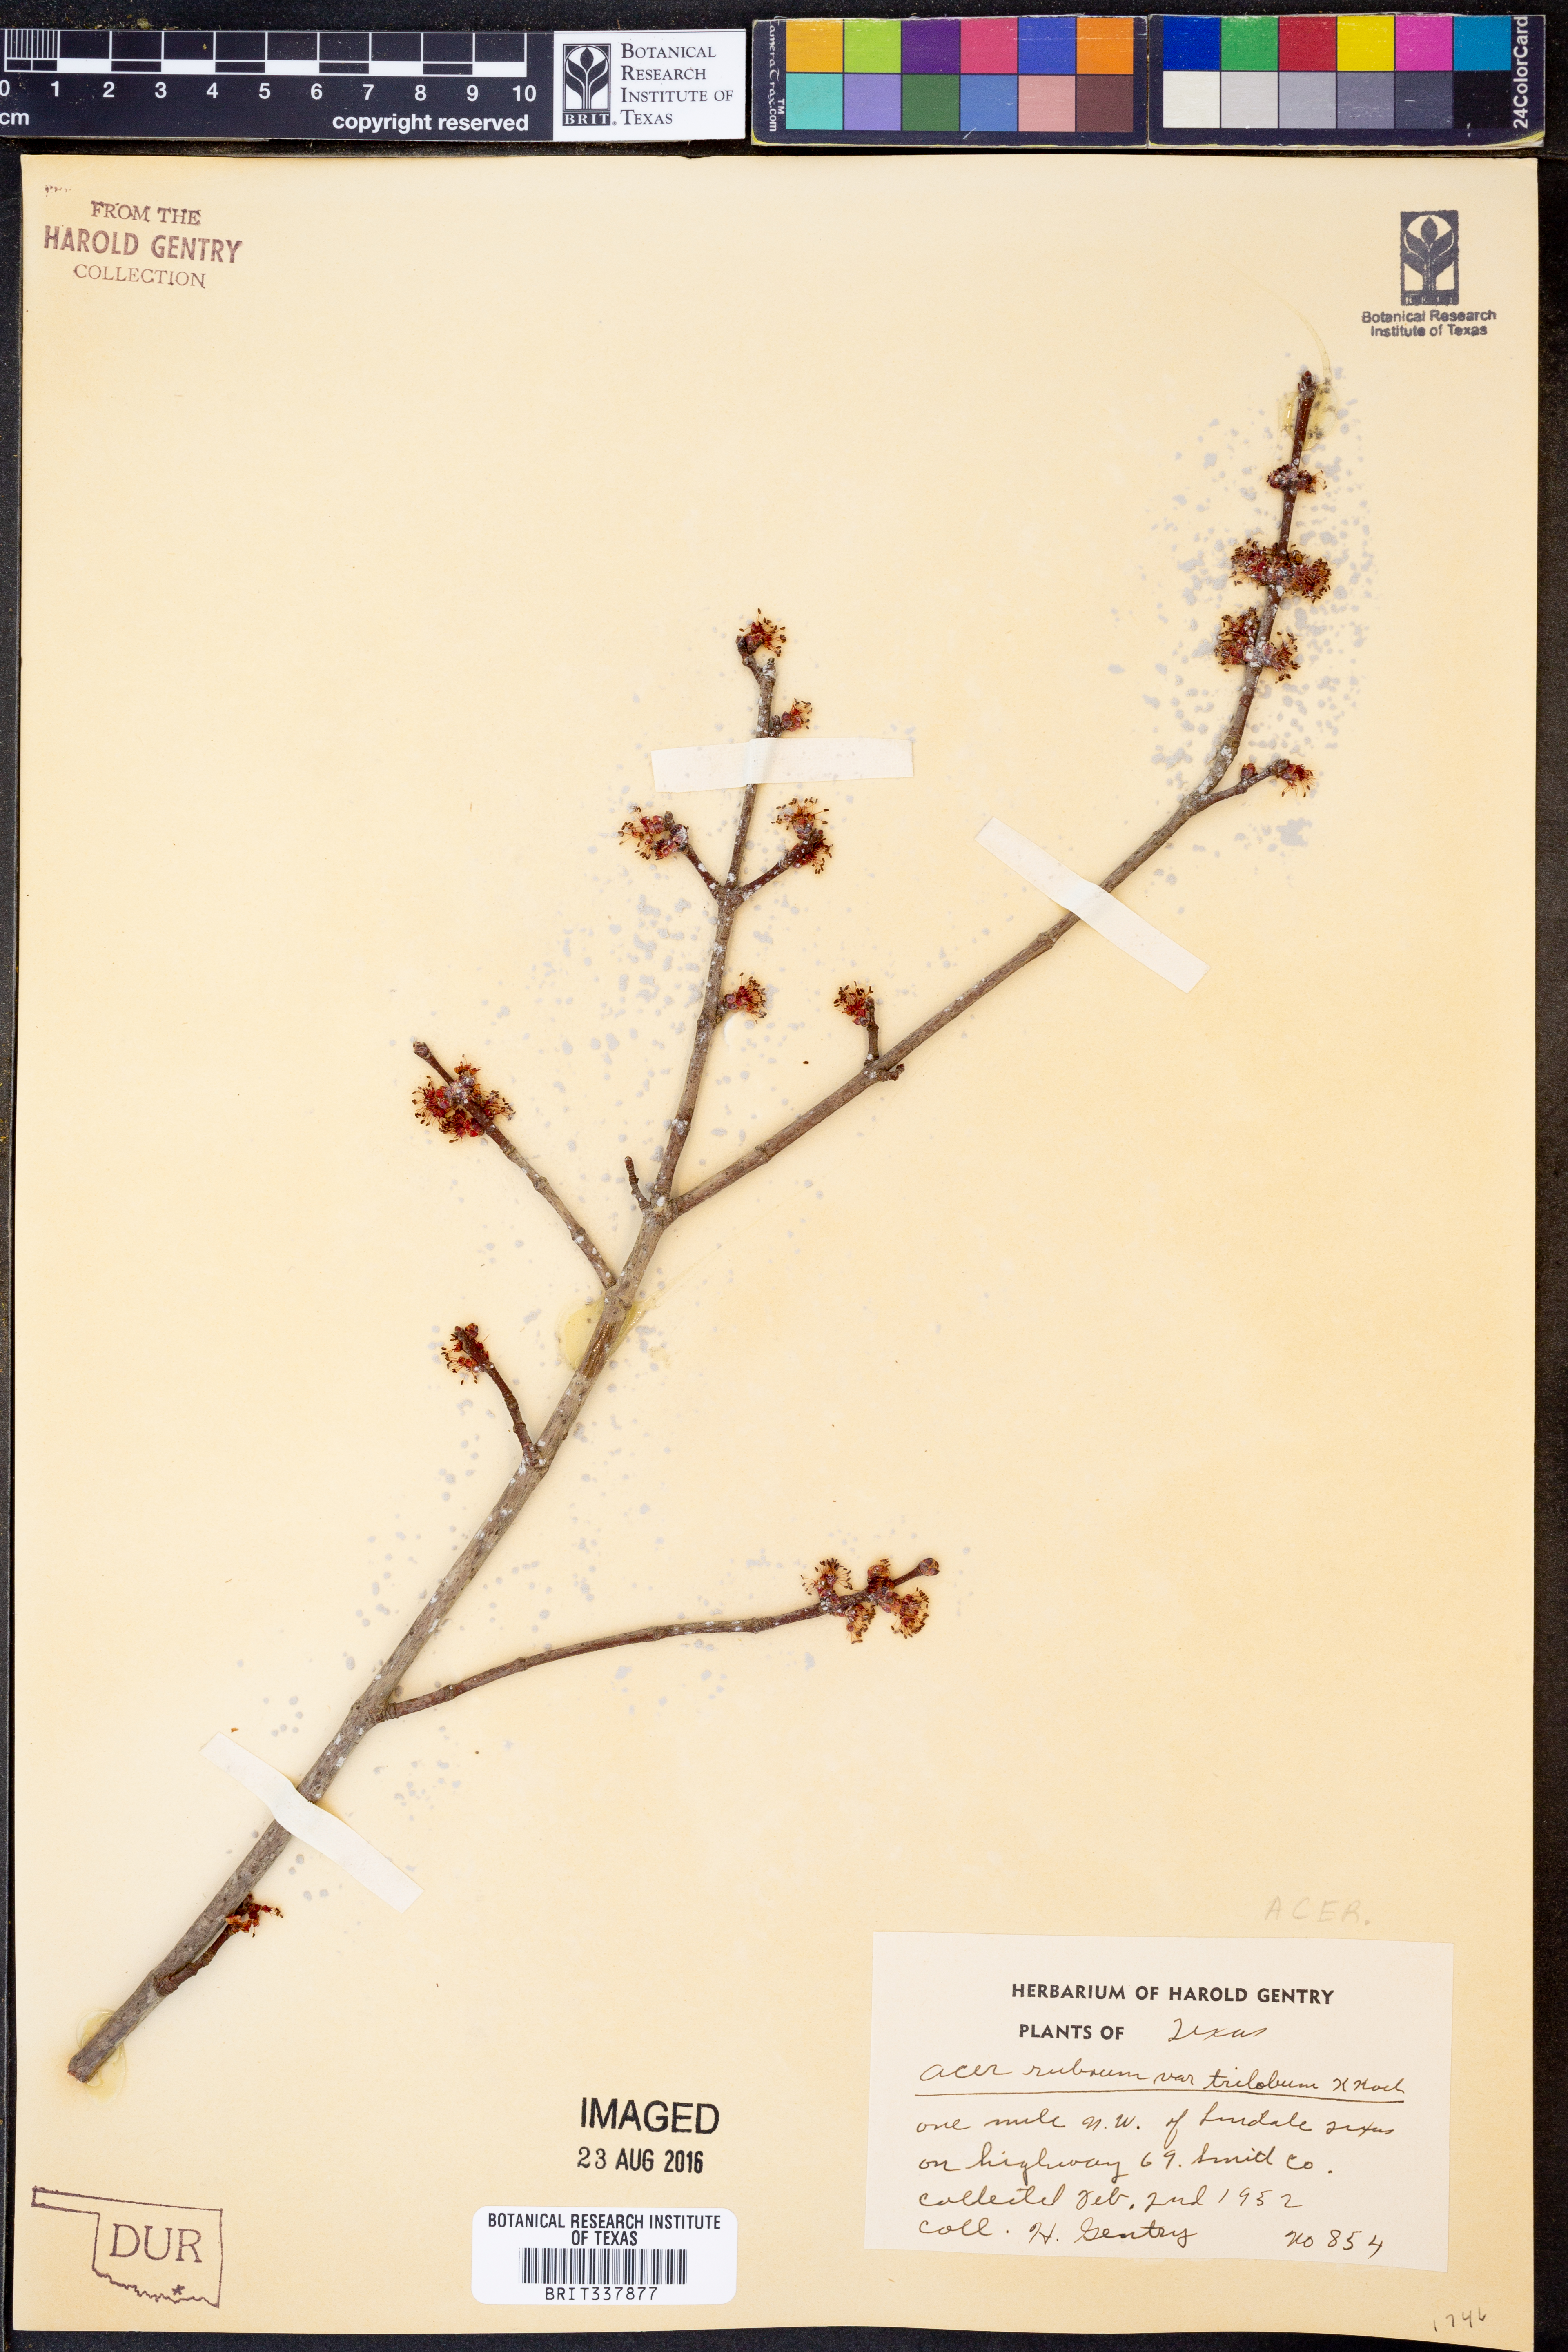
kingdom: Plantae
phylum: Tracheophyta
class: Magnoliopsida
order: Sapindales
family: Sapindaceae
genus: Acer
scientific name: Acer rubrum
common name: Red maple
